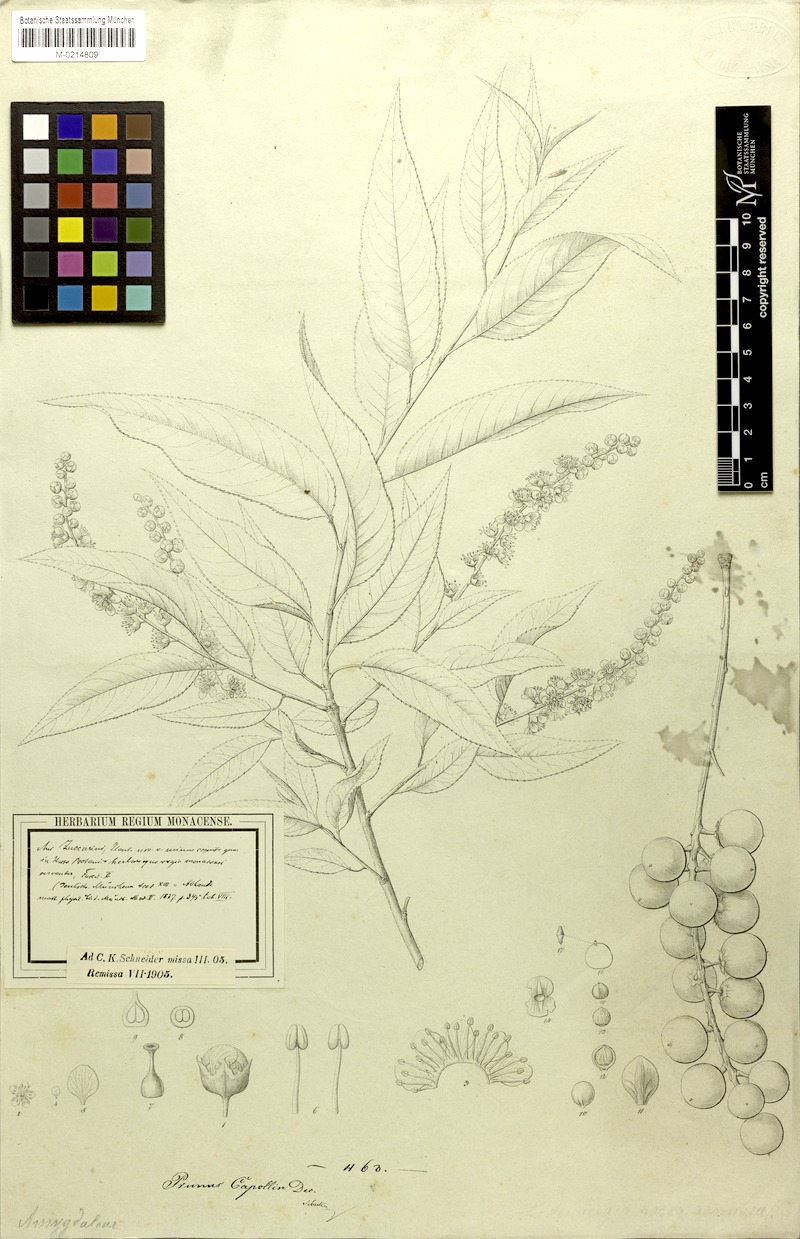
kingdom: Plantae
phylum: Tracheophyta
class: Magnoliopsida
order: Rosales
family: Rosaceae
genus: Prunus
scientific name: Prunus serotina
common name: Black cherry
